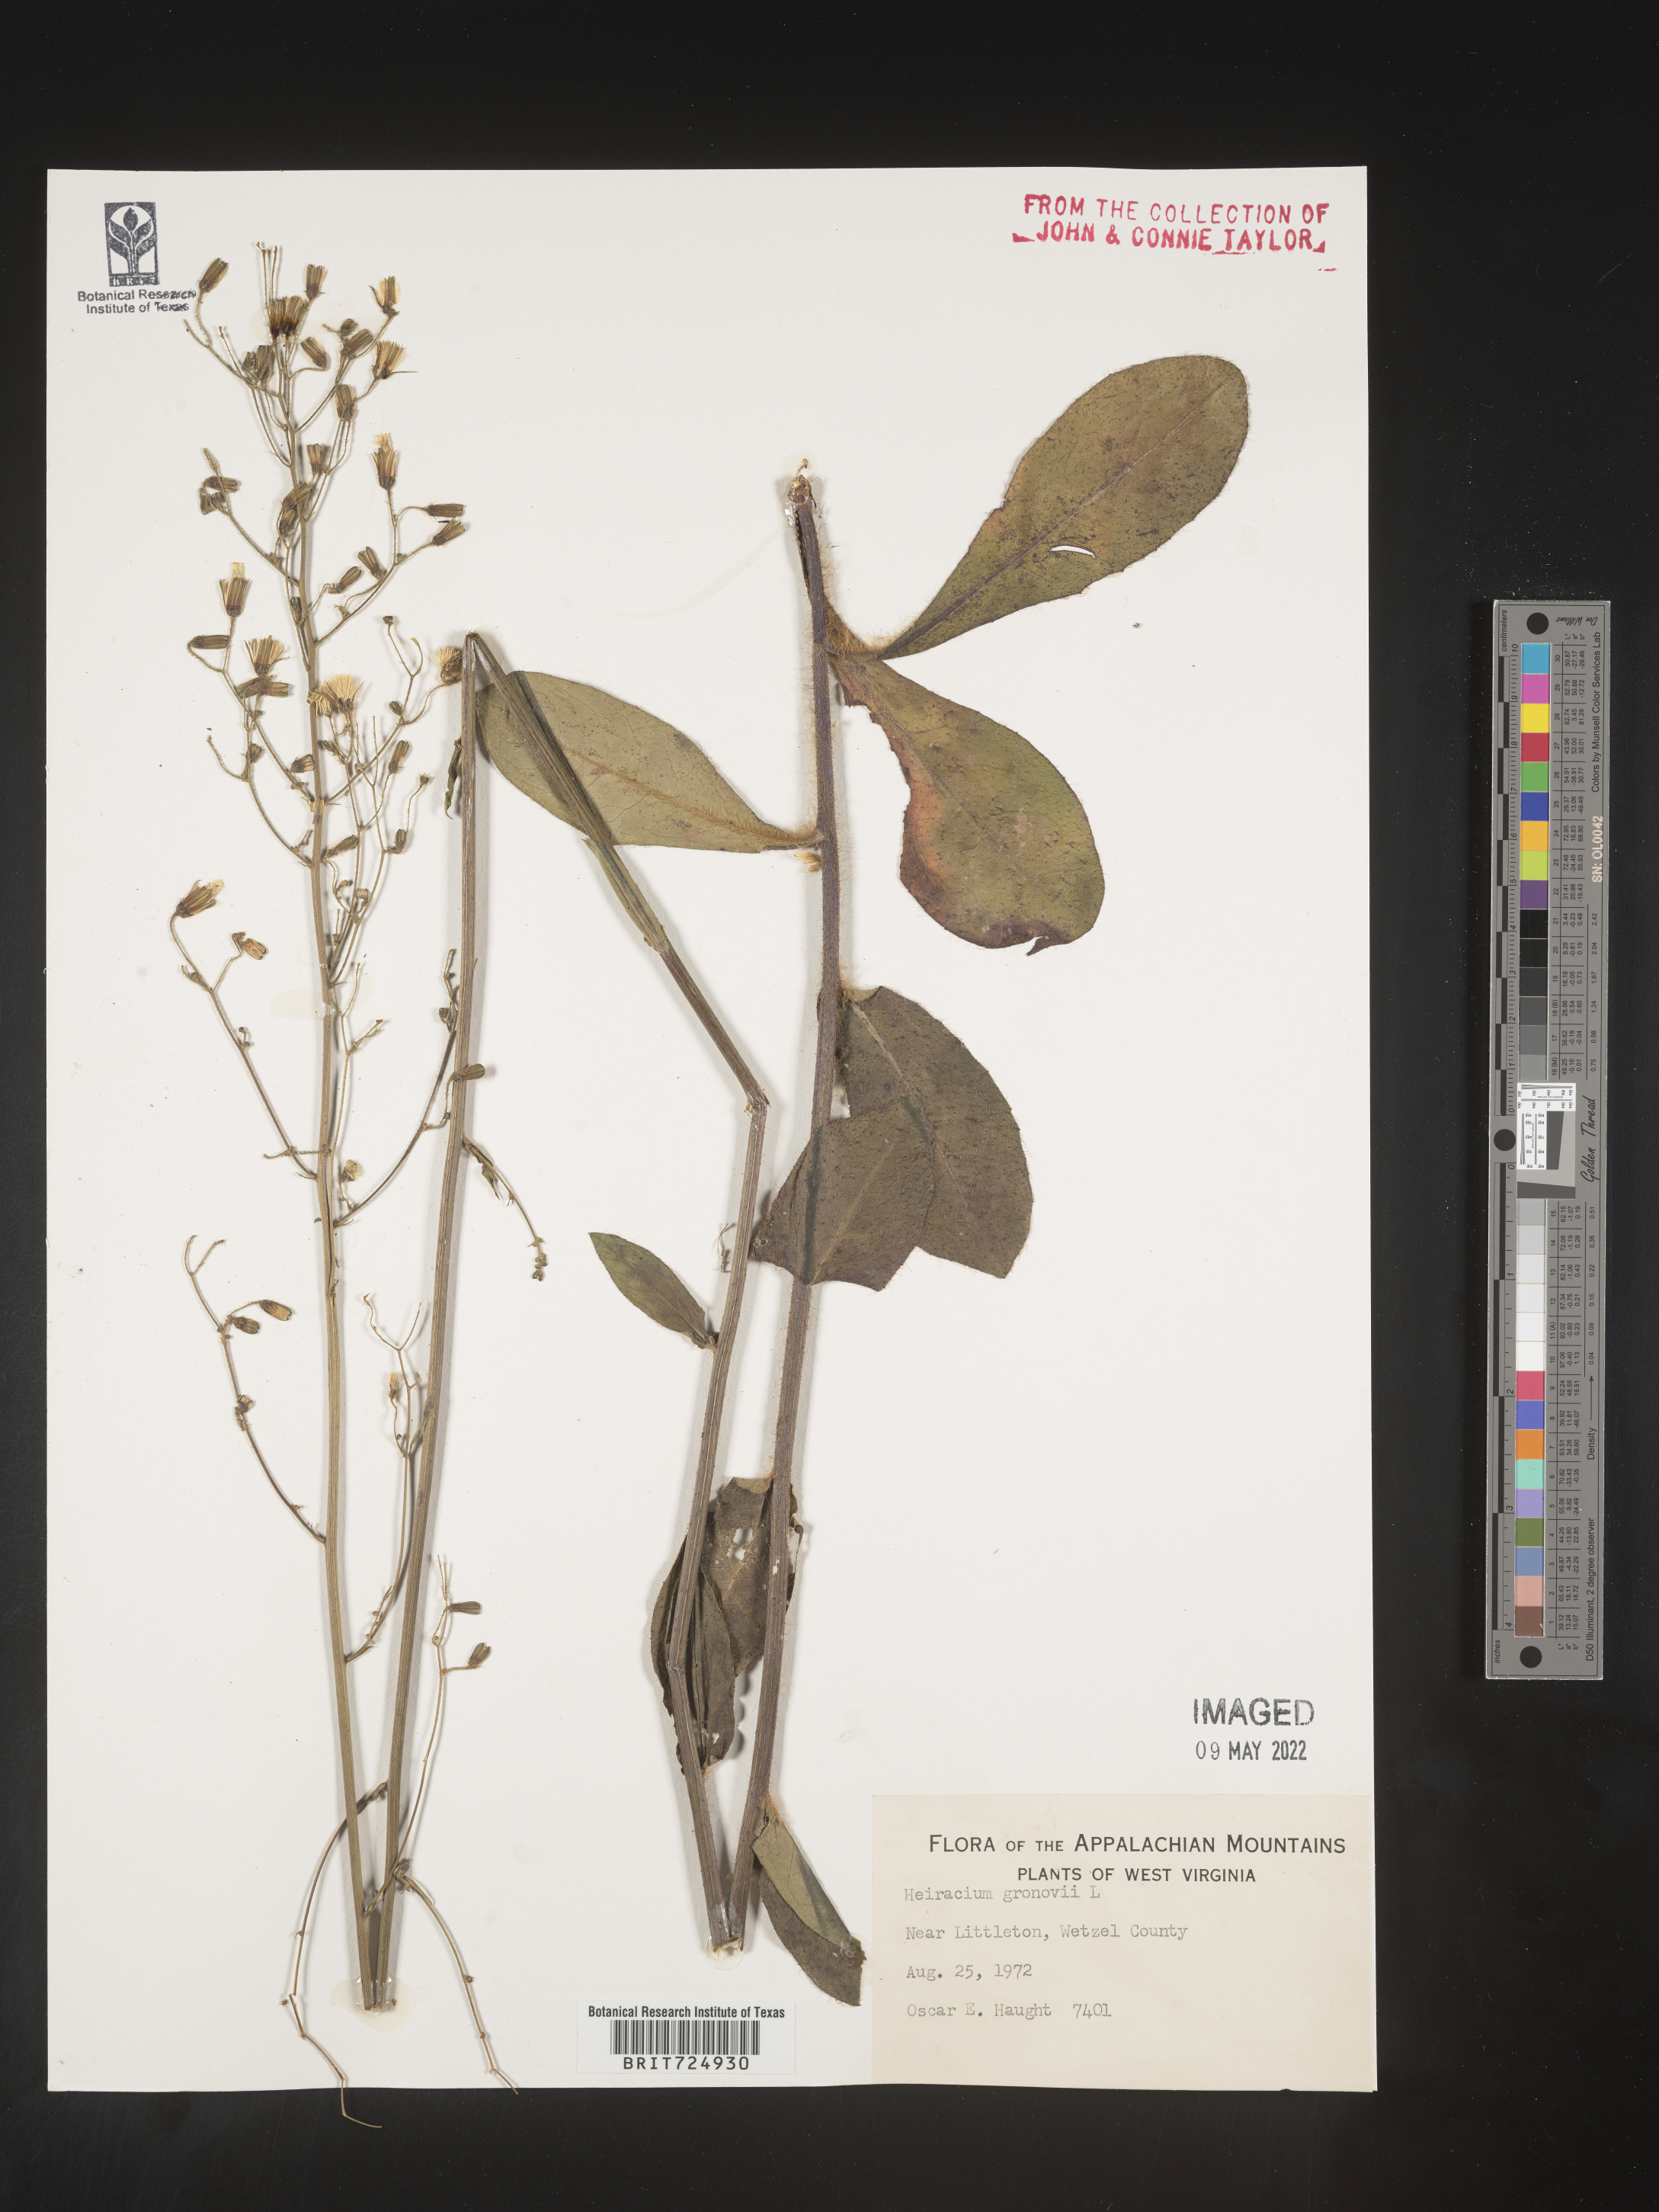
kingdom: Plantae
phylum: Tracheophyta
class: Magnoliopsida
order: Asterales
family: Asteraceae
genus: Hieracium
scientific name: Hieracium gronovii
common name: Beaked hawkweed
